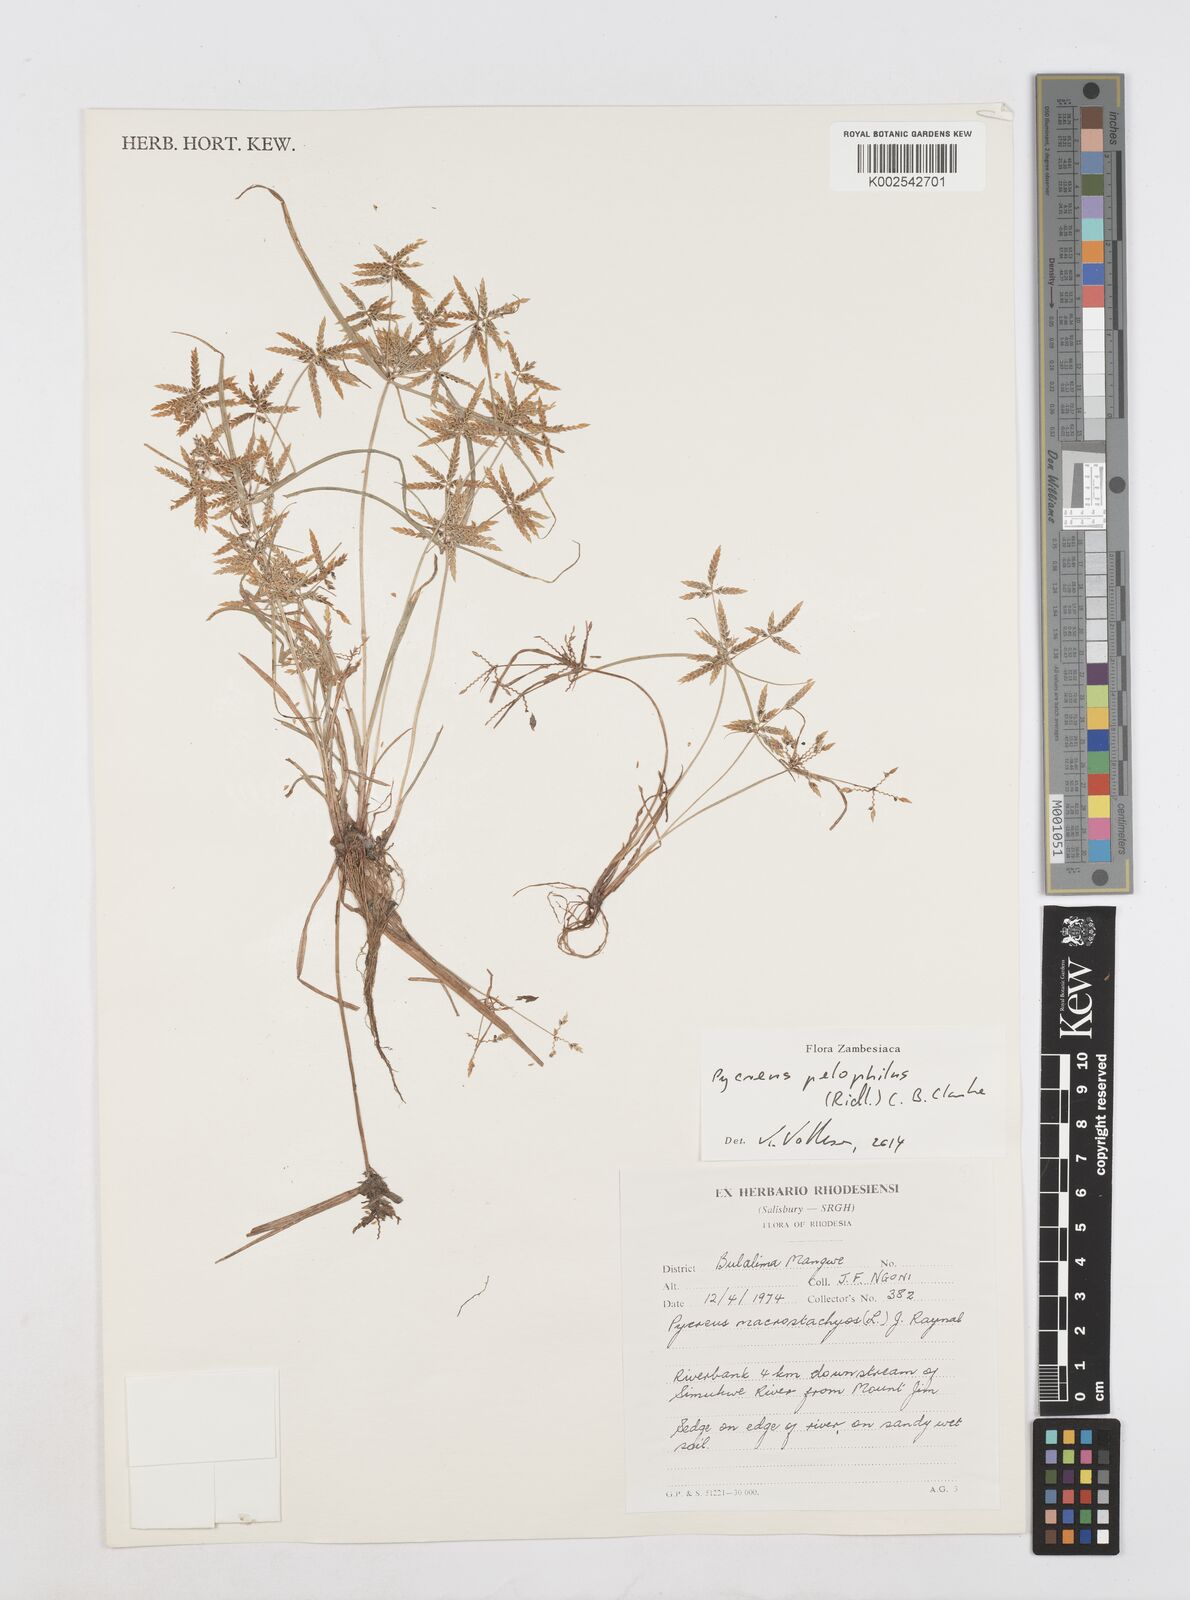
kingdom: Plantae
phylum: Tracheophyta
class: Liliopsida
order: Poales
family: Cyperaceae
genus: Cyperus
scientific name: Cyperus pelophilus
